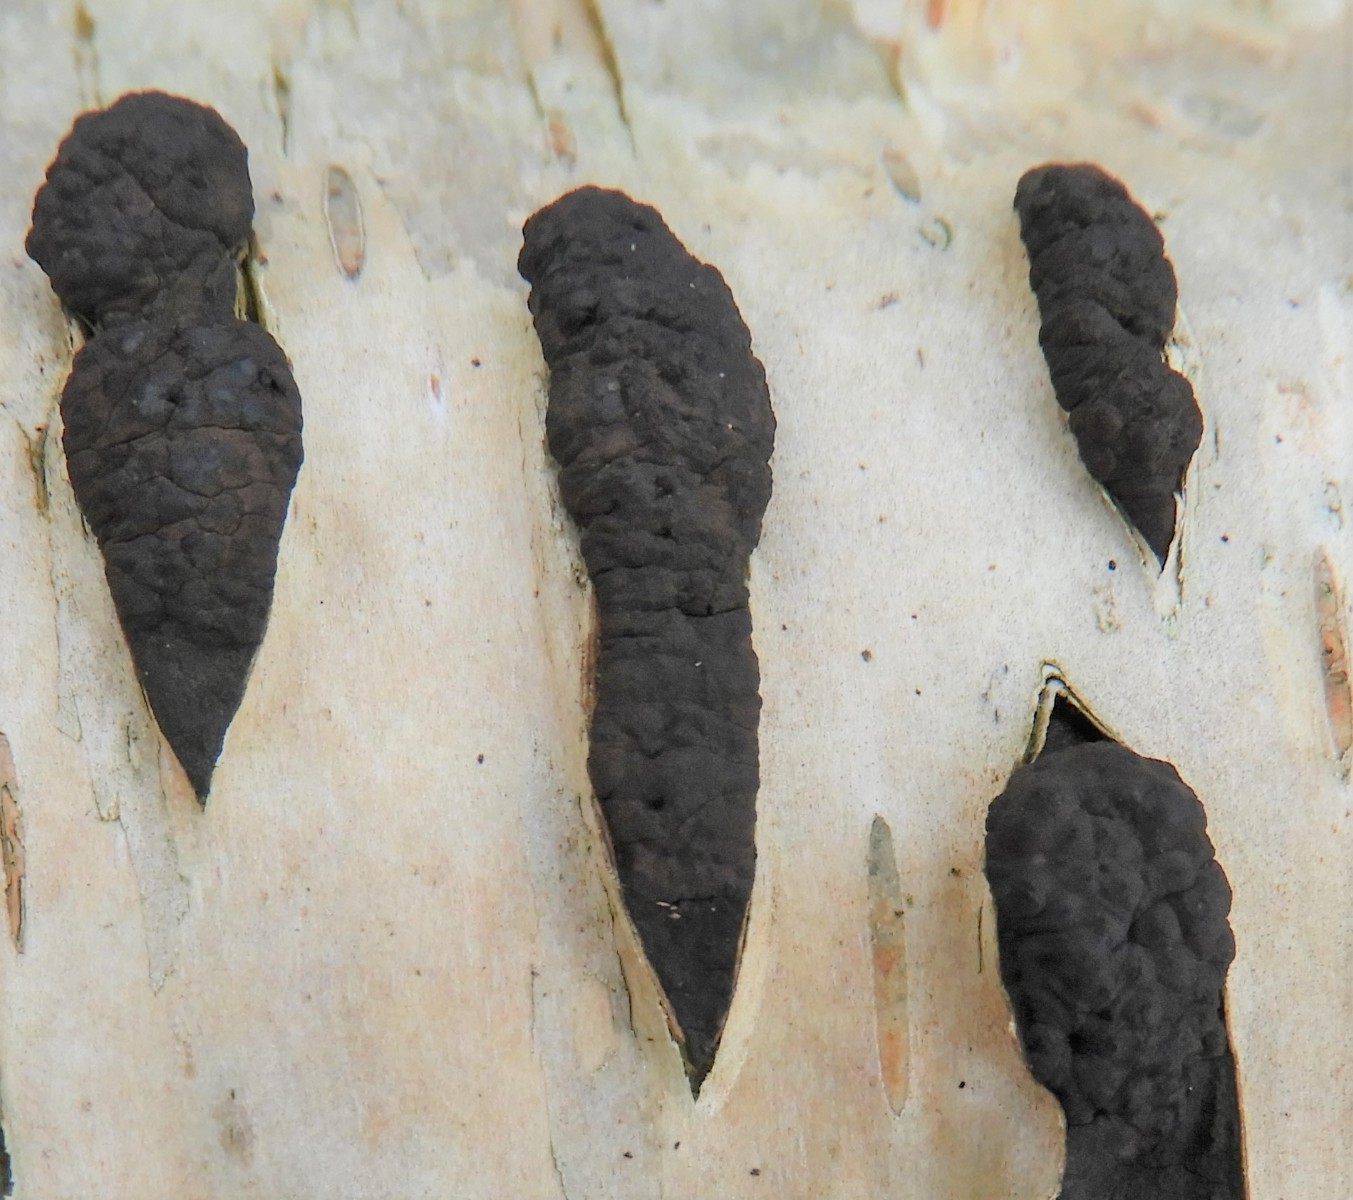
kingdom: Fungi
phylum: Ascomycota
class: Sordariomycetes
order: Xylariales
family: Hypoxylaceae
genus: Jackrogersella
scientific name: Jackrogersella multiformis
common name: foranderlig kulbær
